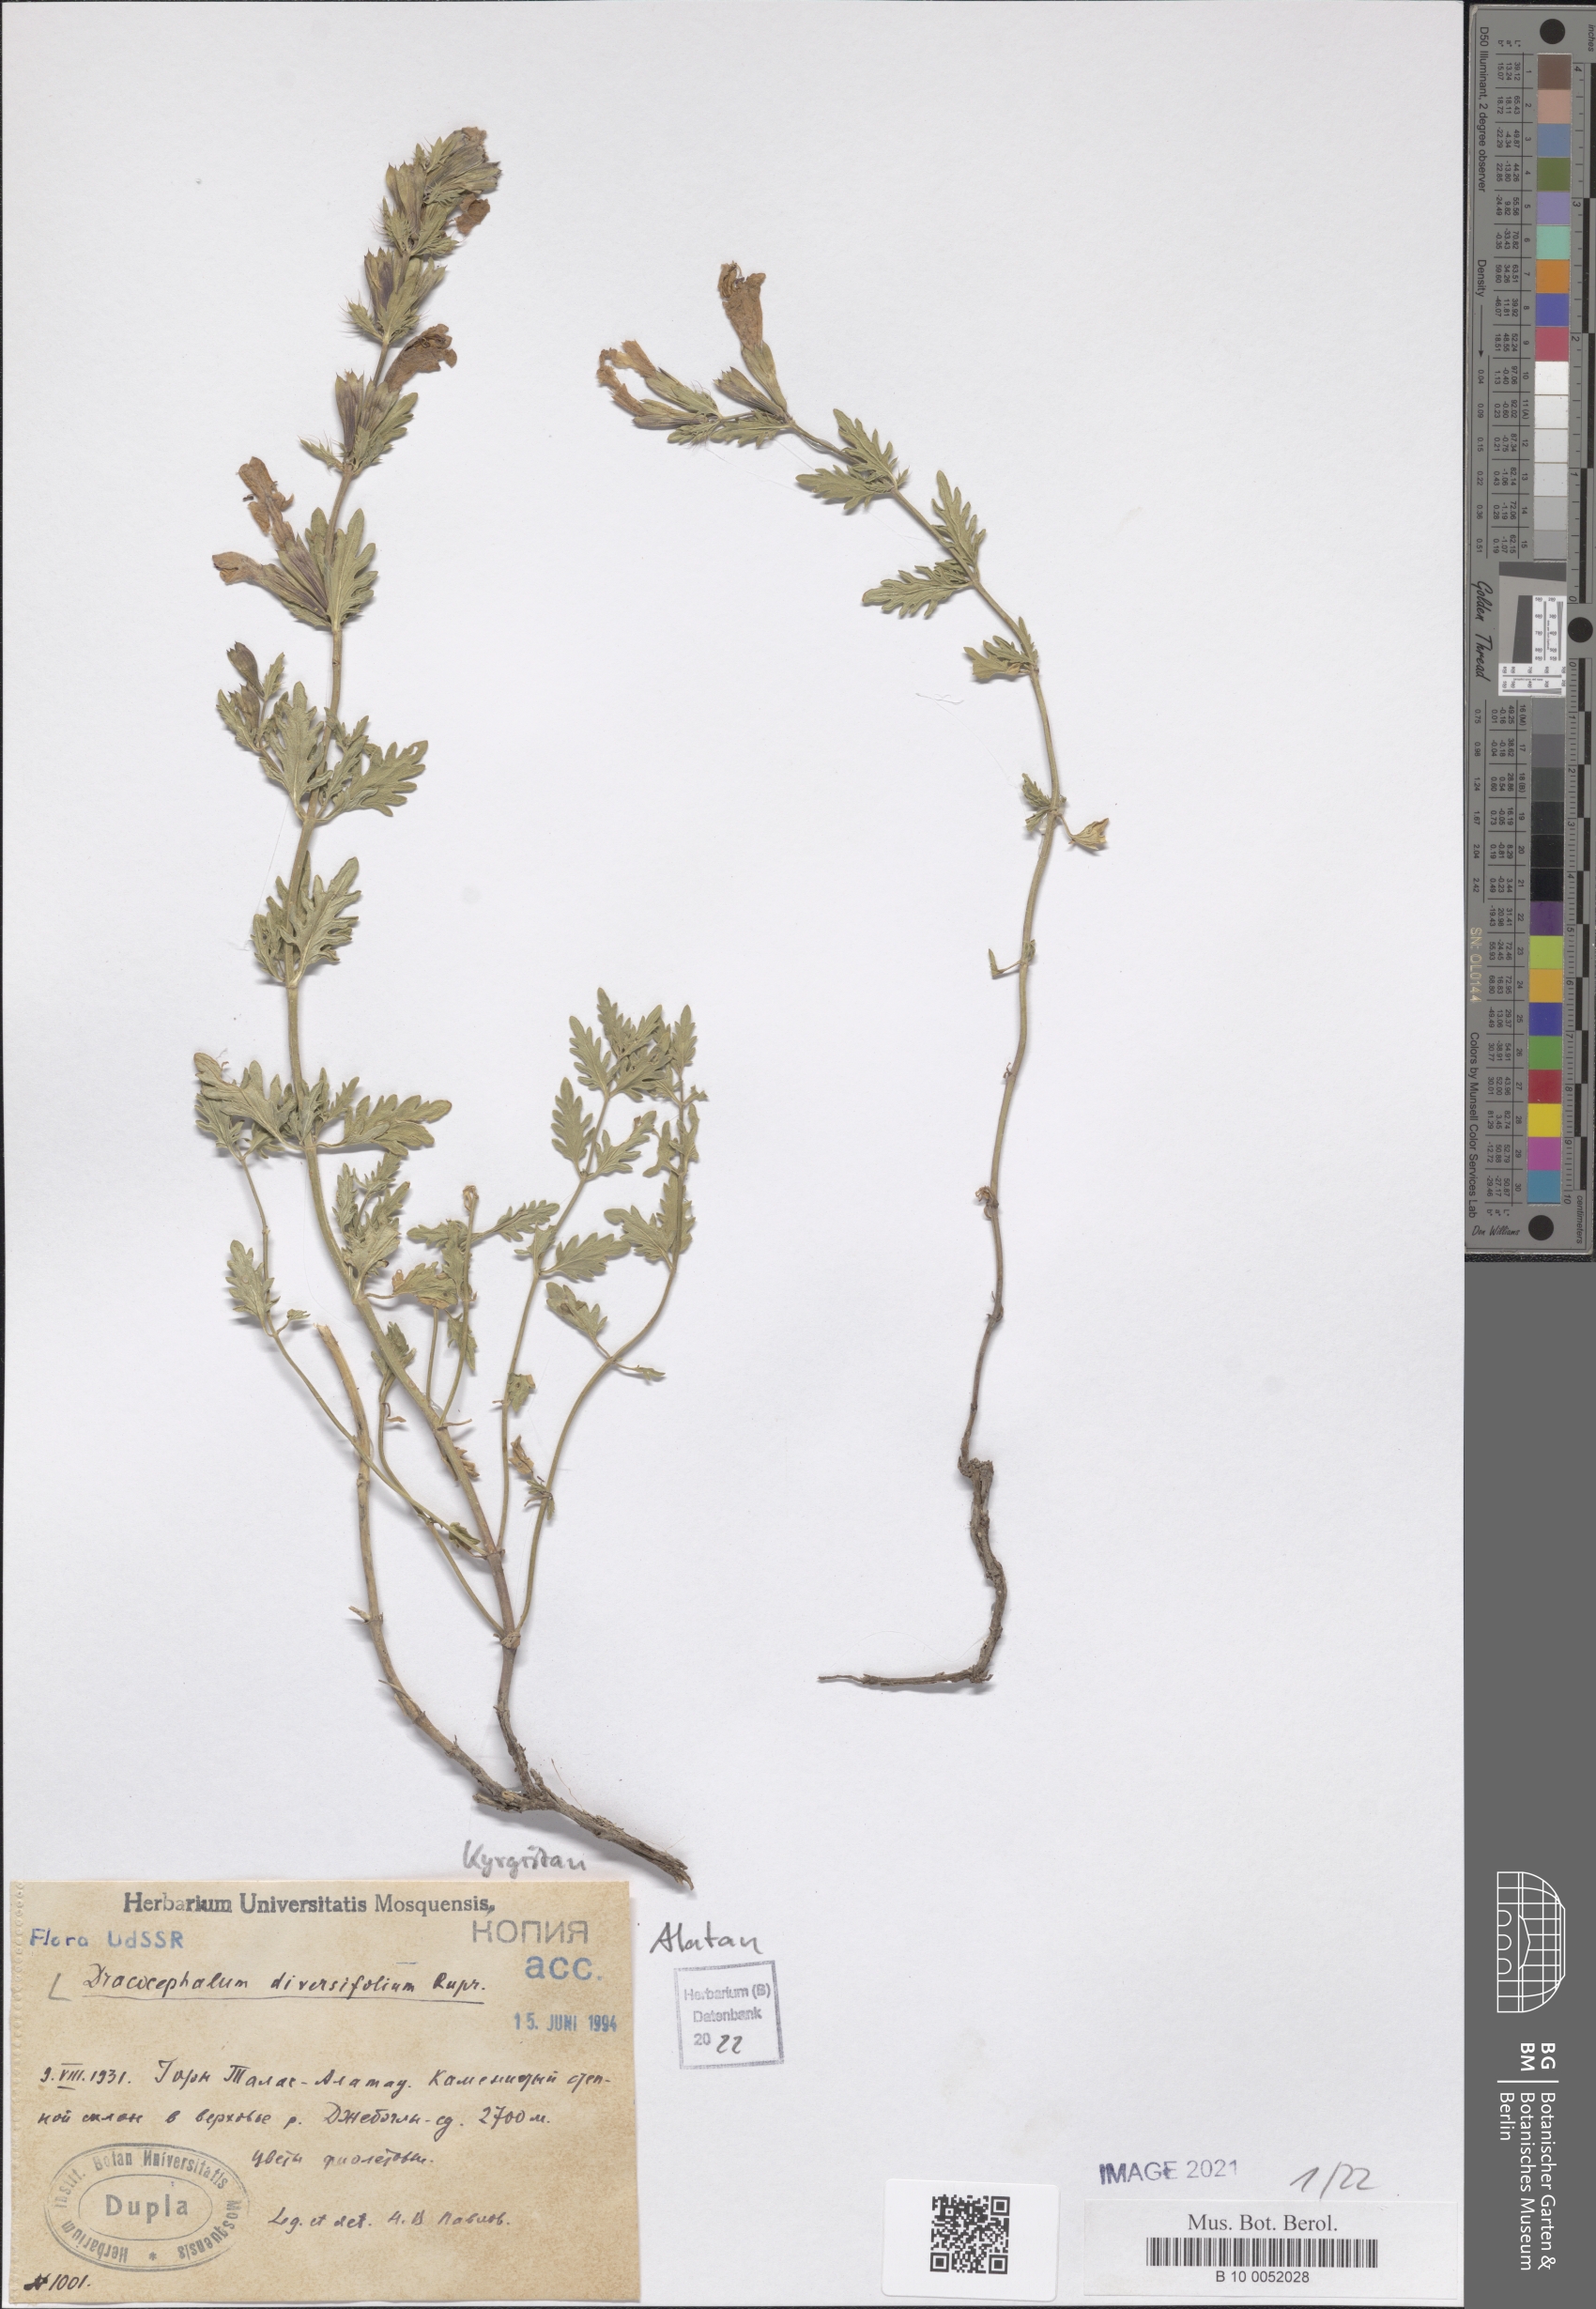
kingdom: Plantae
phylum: Tracheophyta
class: Magnoliopsida
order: Lamiales
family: Lamiaceae
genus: Dracocephalum
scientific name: Dracocephalum diversifolium
